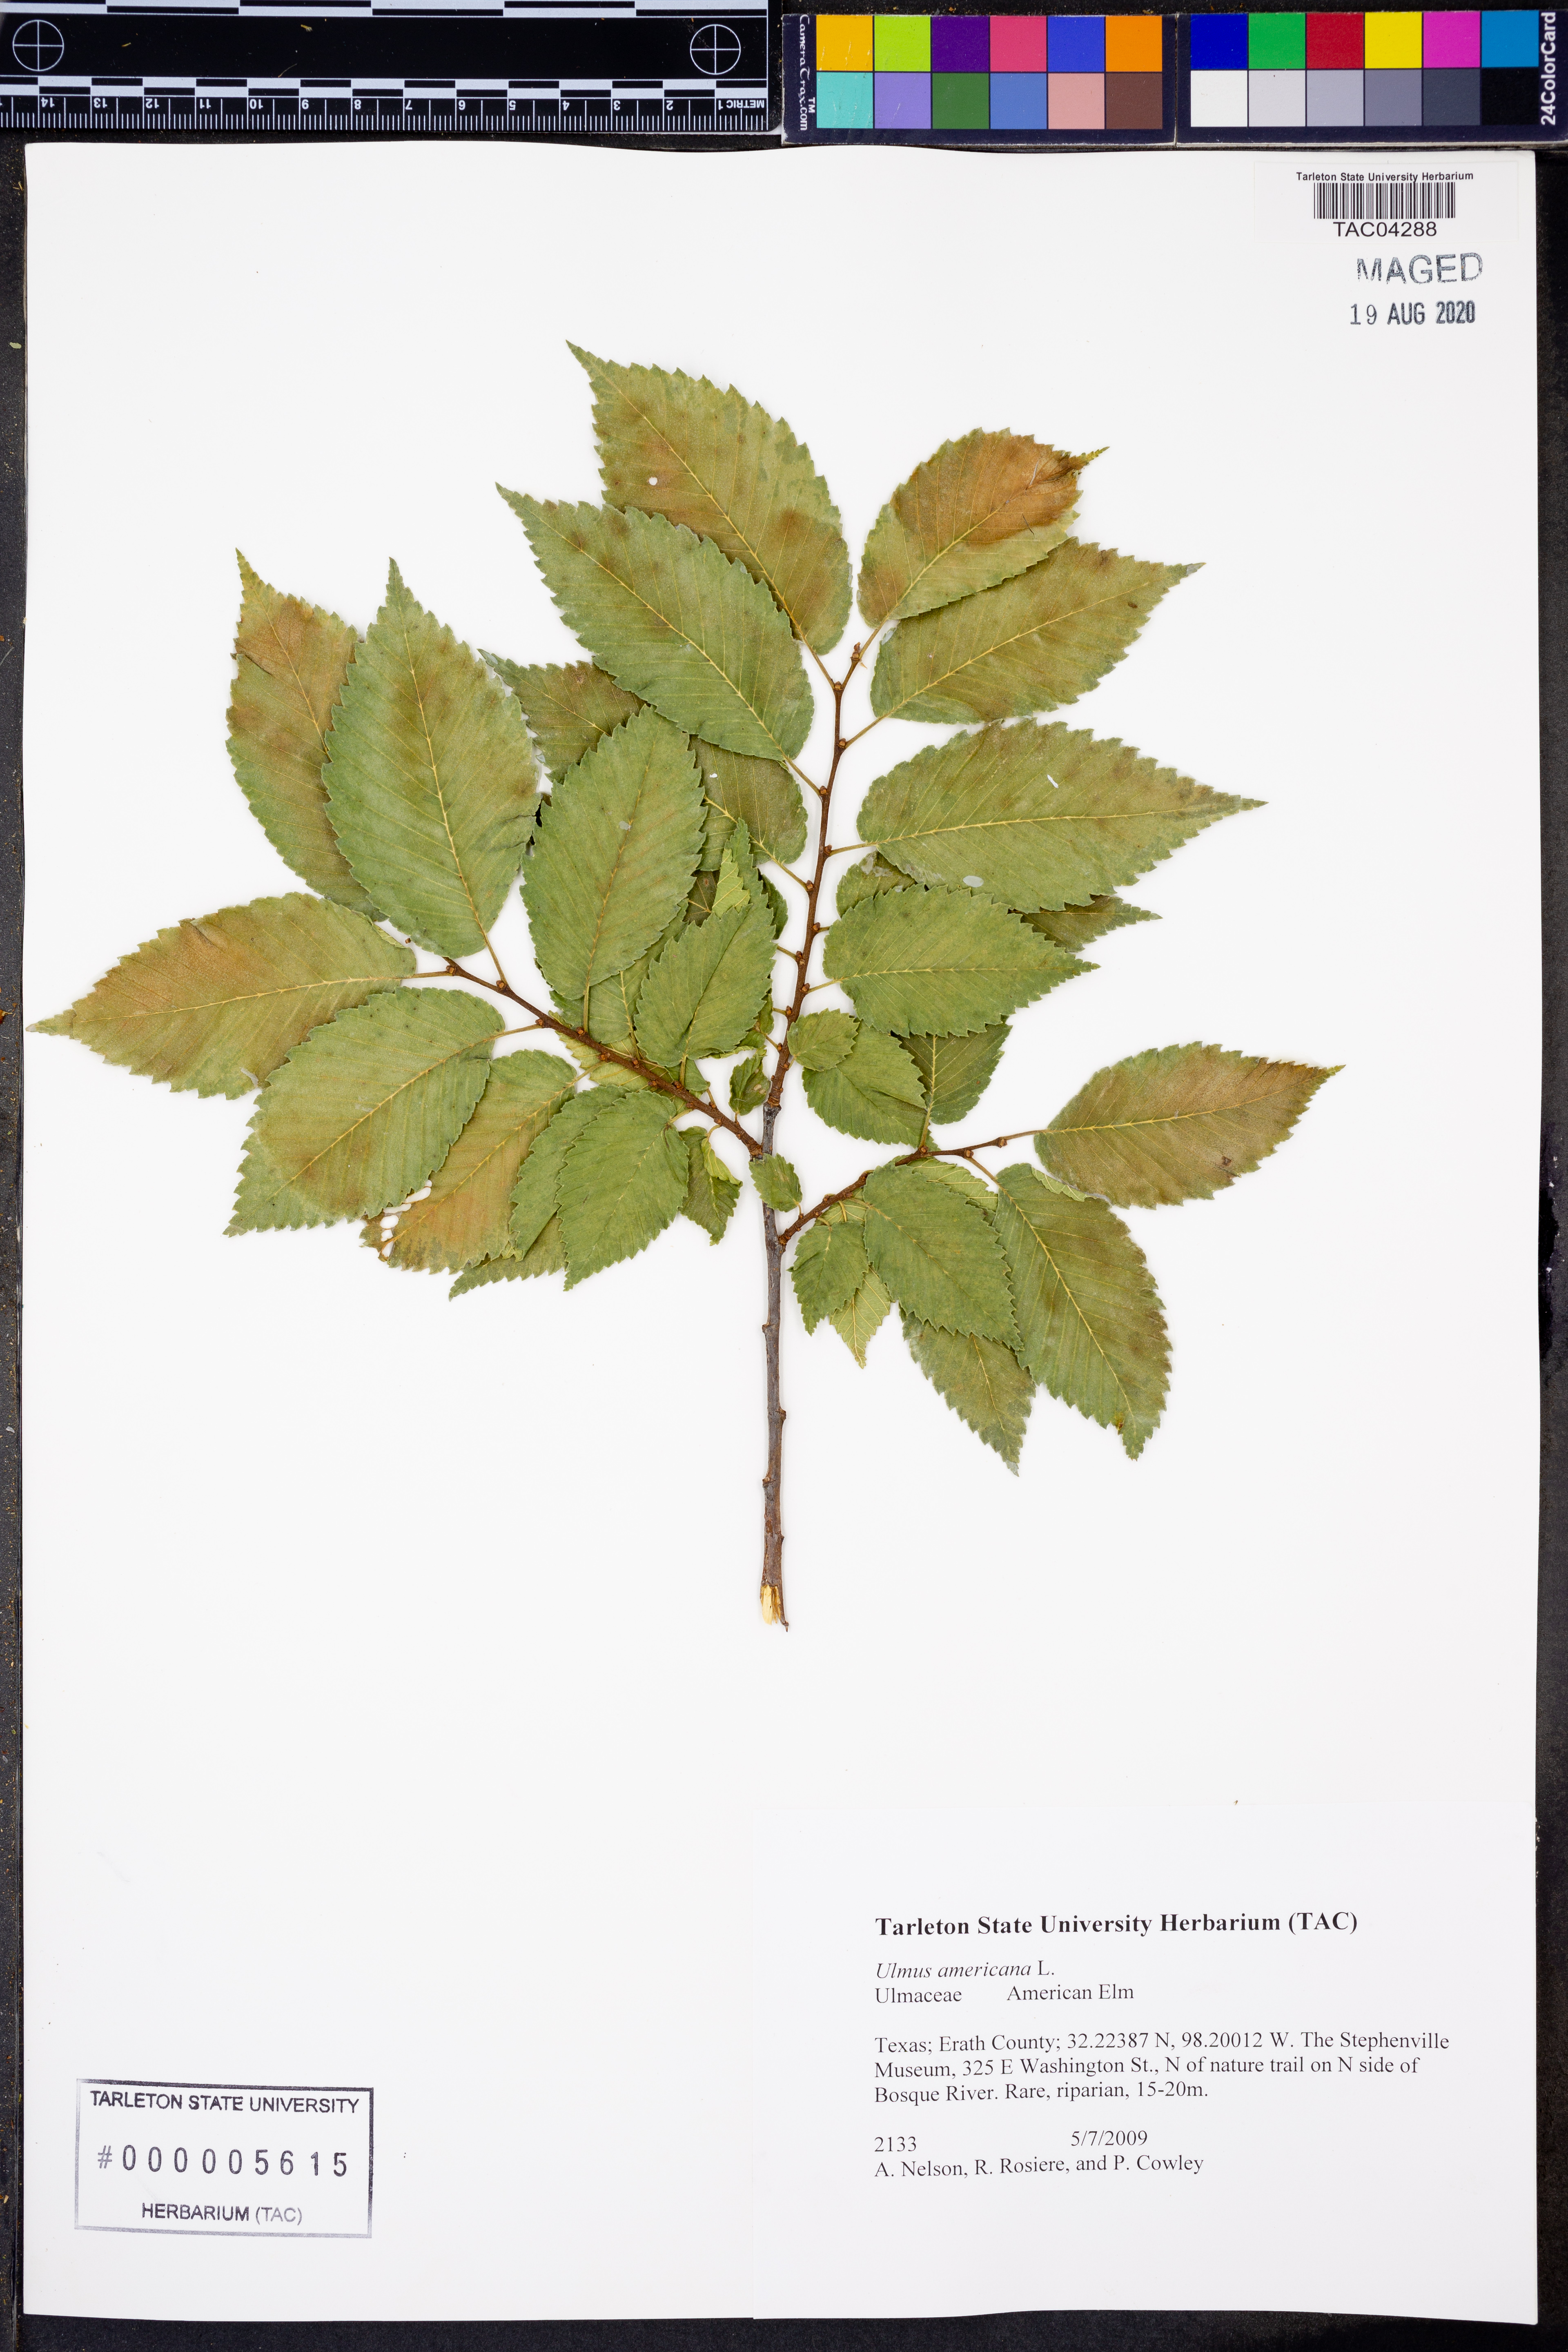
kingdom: Plantae
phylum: Tracheophyta
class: Magnoliopsida
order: Rosales
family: Ulmaceae
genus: Ulmus
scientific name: Ulmus americana
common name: American elm
